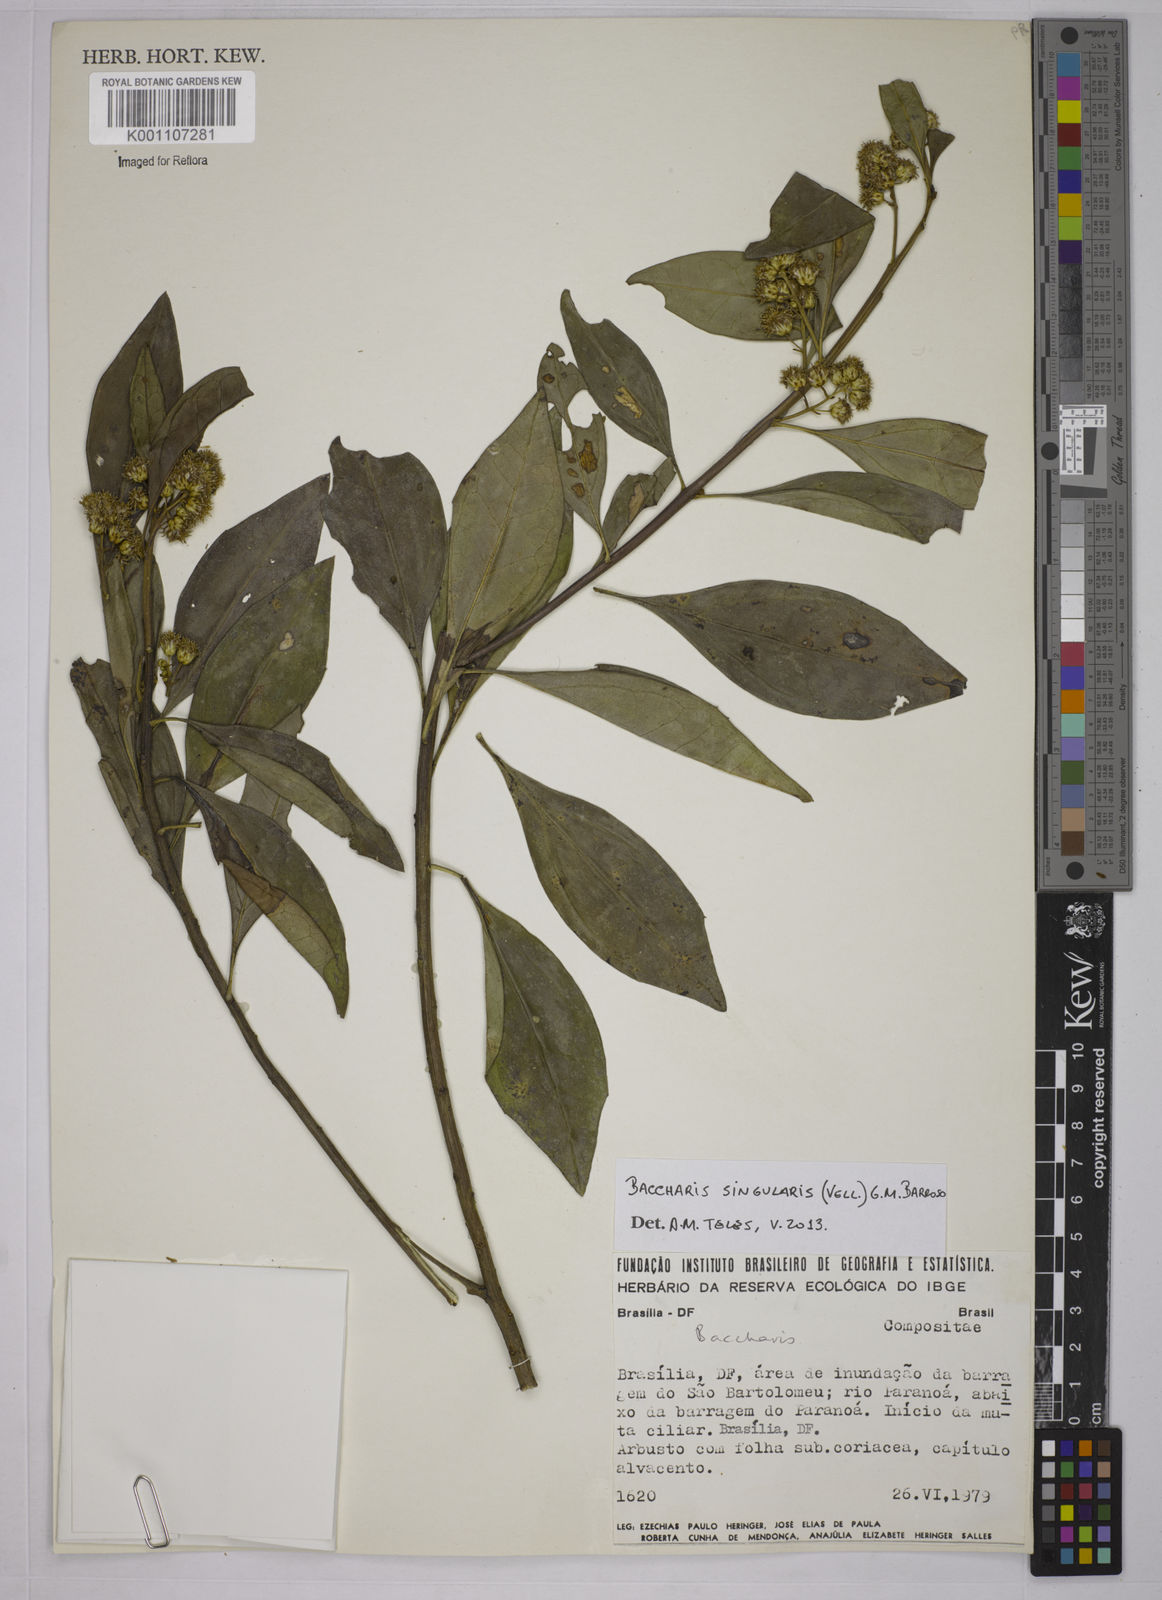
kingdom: Plantae
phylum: Tracheophyta
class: Magnoliopsida
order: Asterales
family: Asteraceae
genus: Baccharis
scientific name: Baccharis singularis
